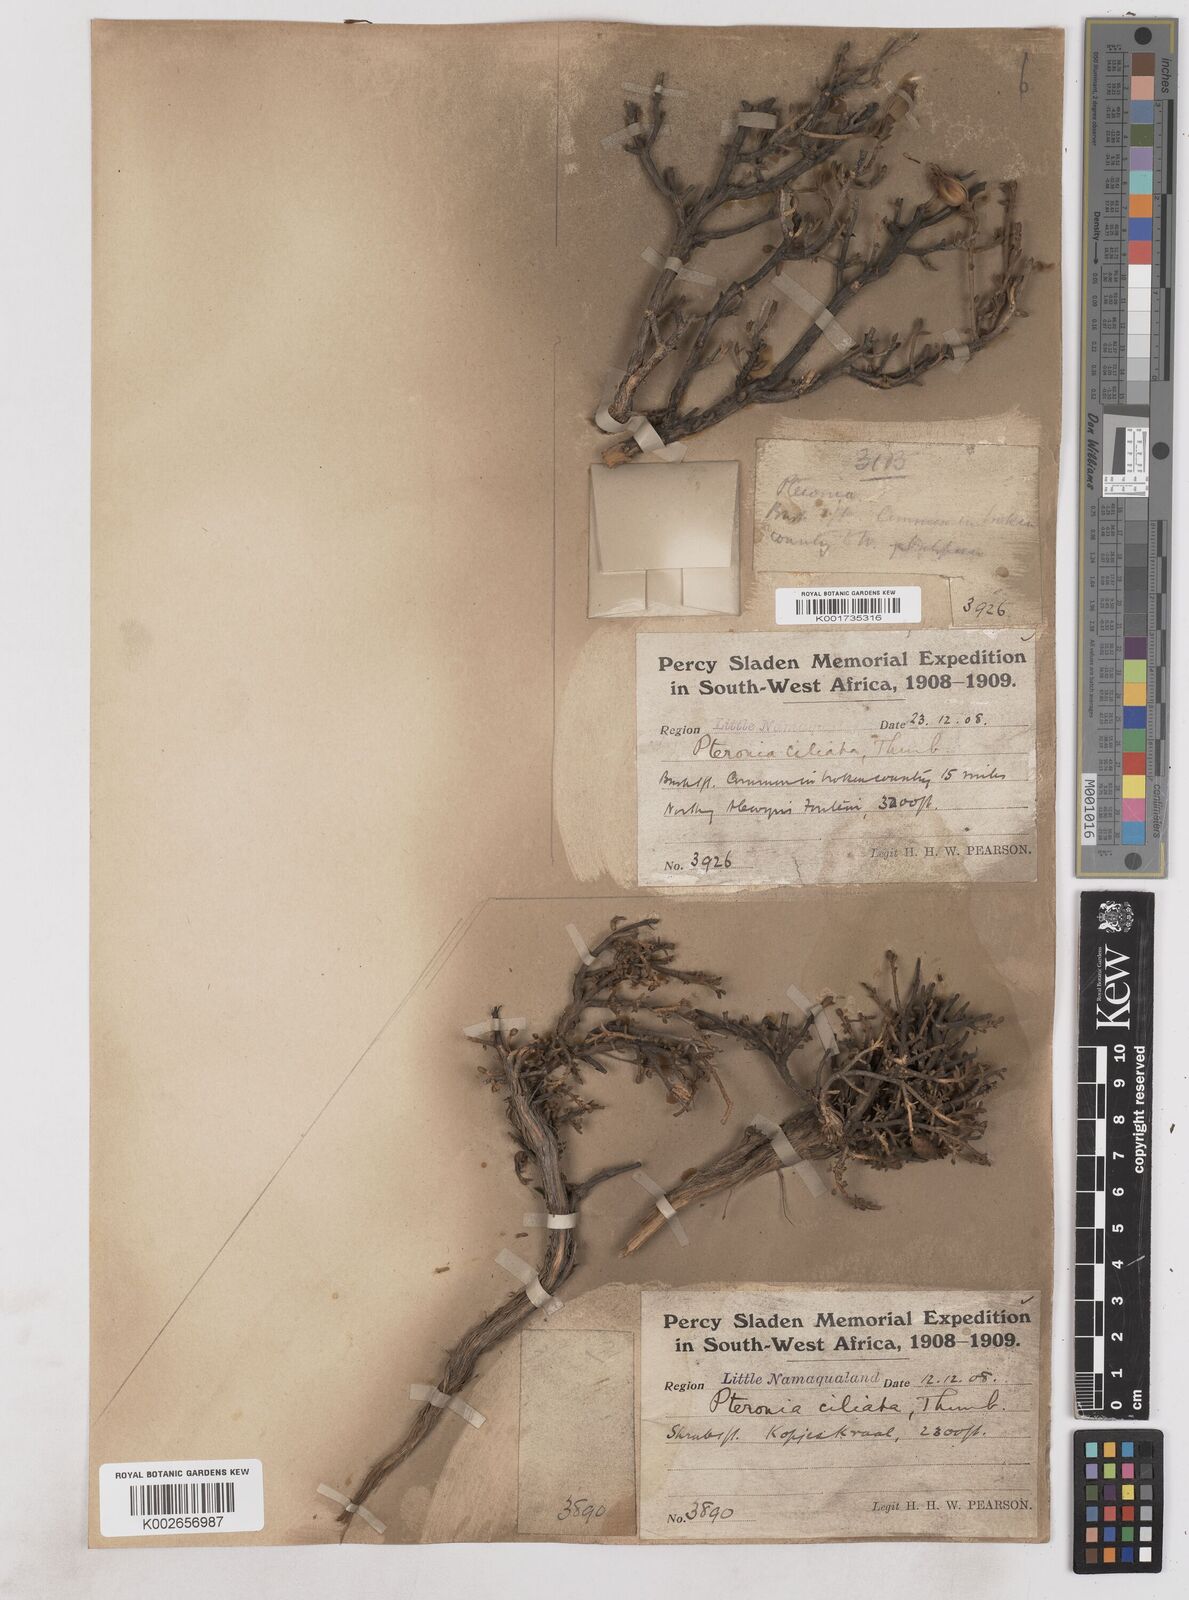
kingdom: Plantae
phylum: Tracheophyta
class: Magnoliopsida
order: Asterales
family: Asteraceae
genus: Pteronia
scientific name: Pteronia ciliata
